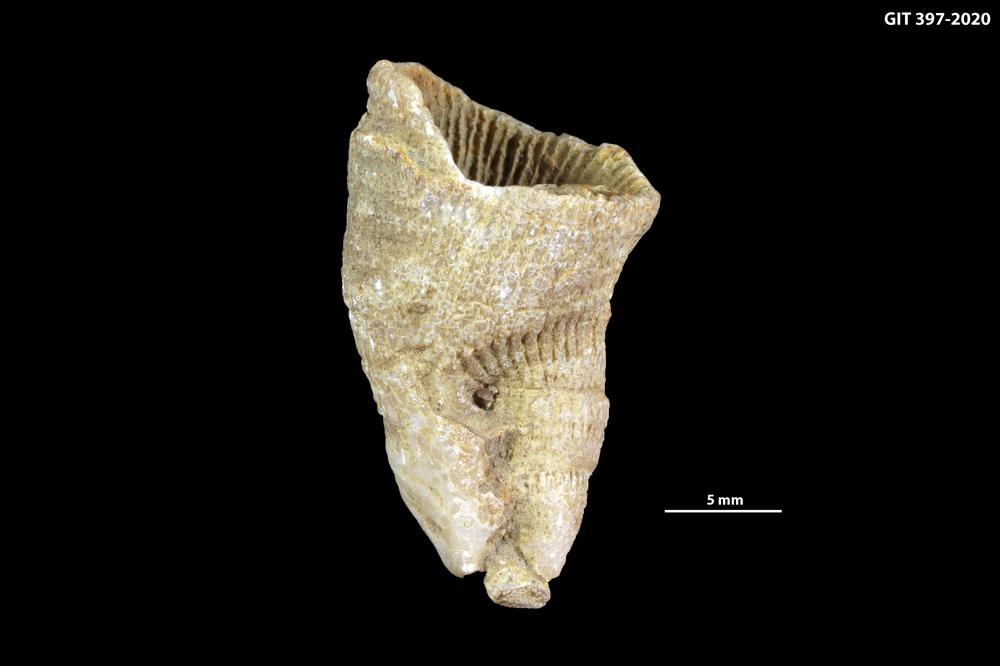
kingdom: Animalia
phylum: Cnidaria
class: Anthozoa
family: Paliphyllidae
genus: Paliphyllum
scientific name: Paliphyllum soshkinae
